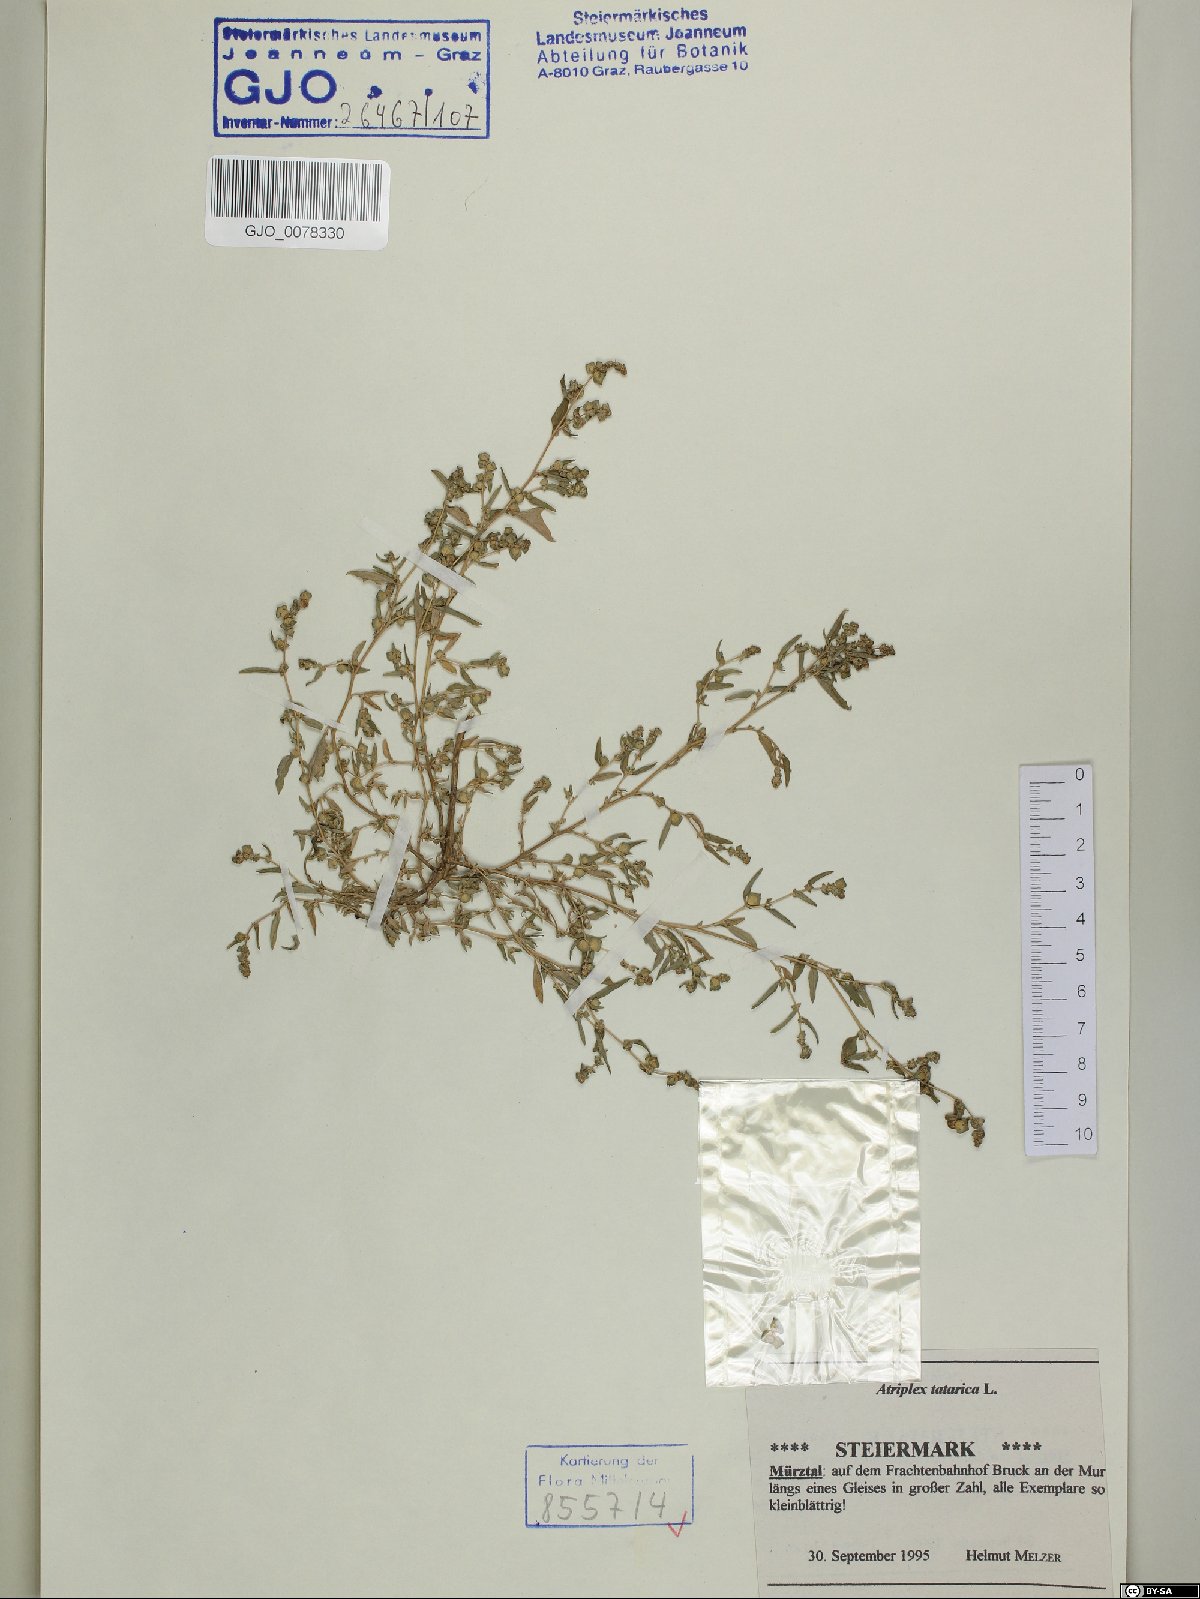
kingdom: Plantae
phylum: Tracheophyta
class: Magnoliopsida
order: Caryophyllales
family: Amaranthaceae
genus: Atriplex
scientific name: Atriplex tatarica
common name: Tatarian orache
